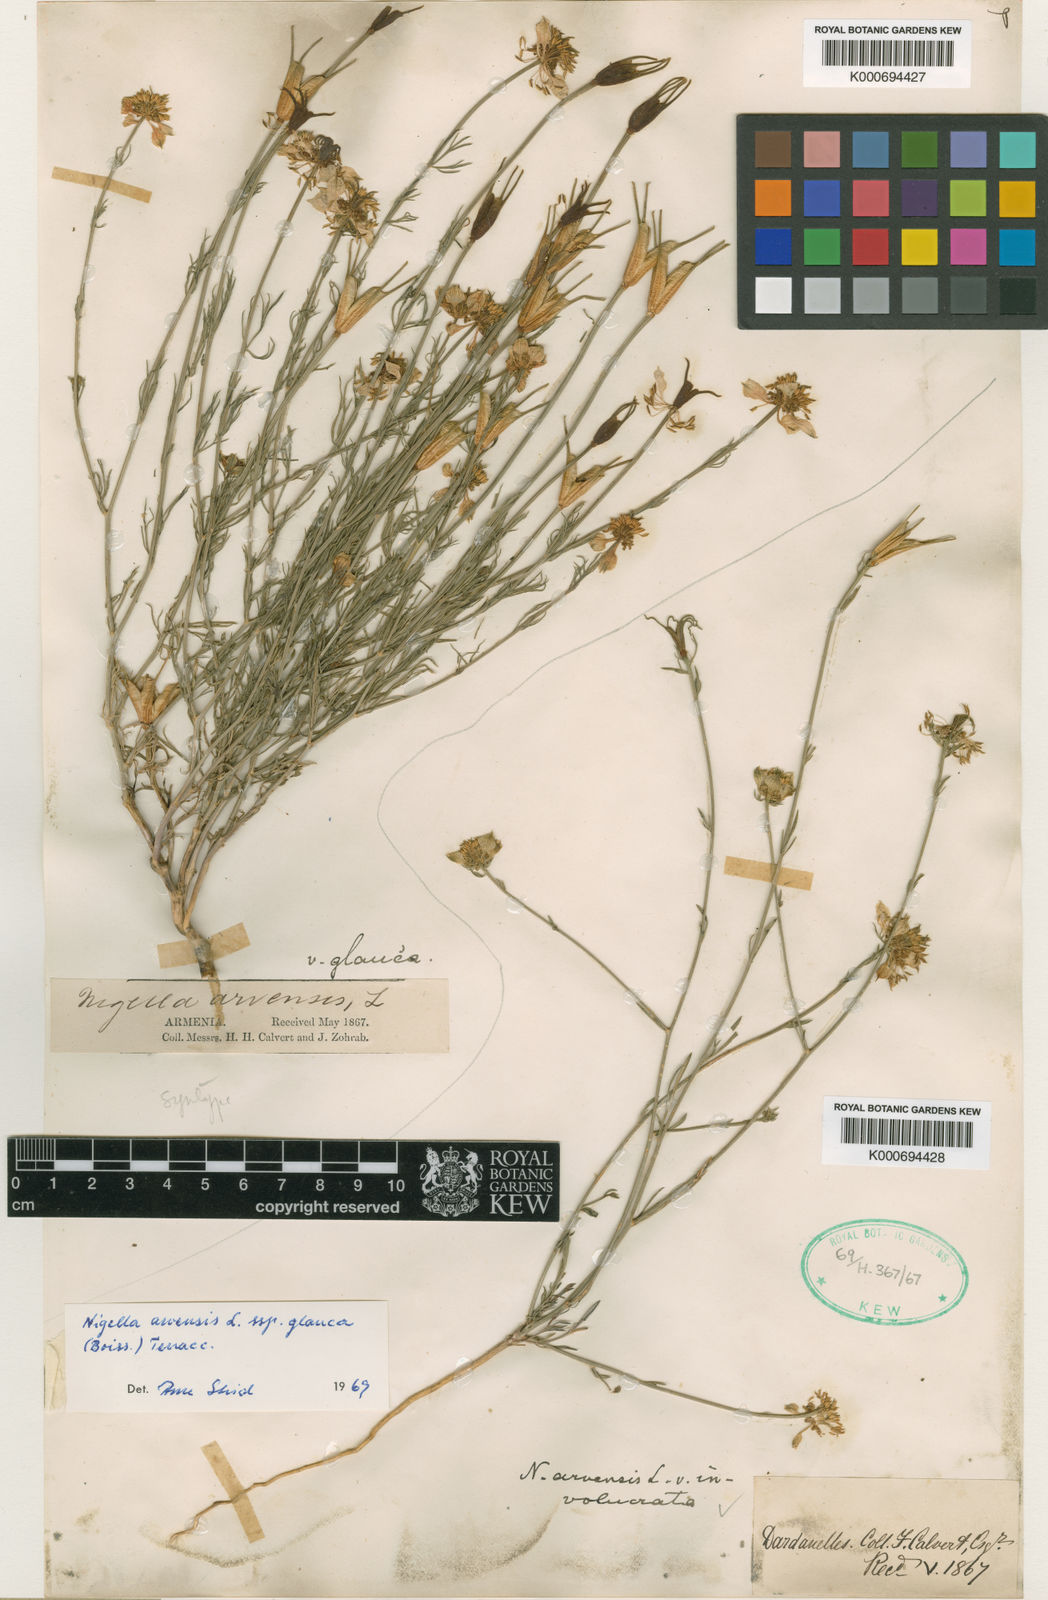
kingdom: Plantae
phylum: Tracheophyta
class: Magnoliopsida
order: Ranunculales
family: Ranunculaceae
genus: Nigella
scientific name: Nigella arvensis
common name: Wild fennel-flower
